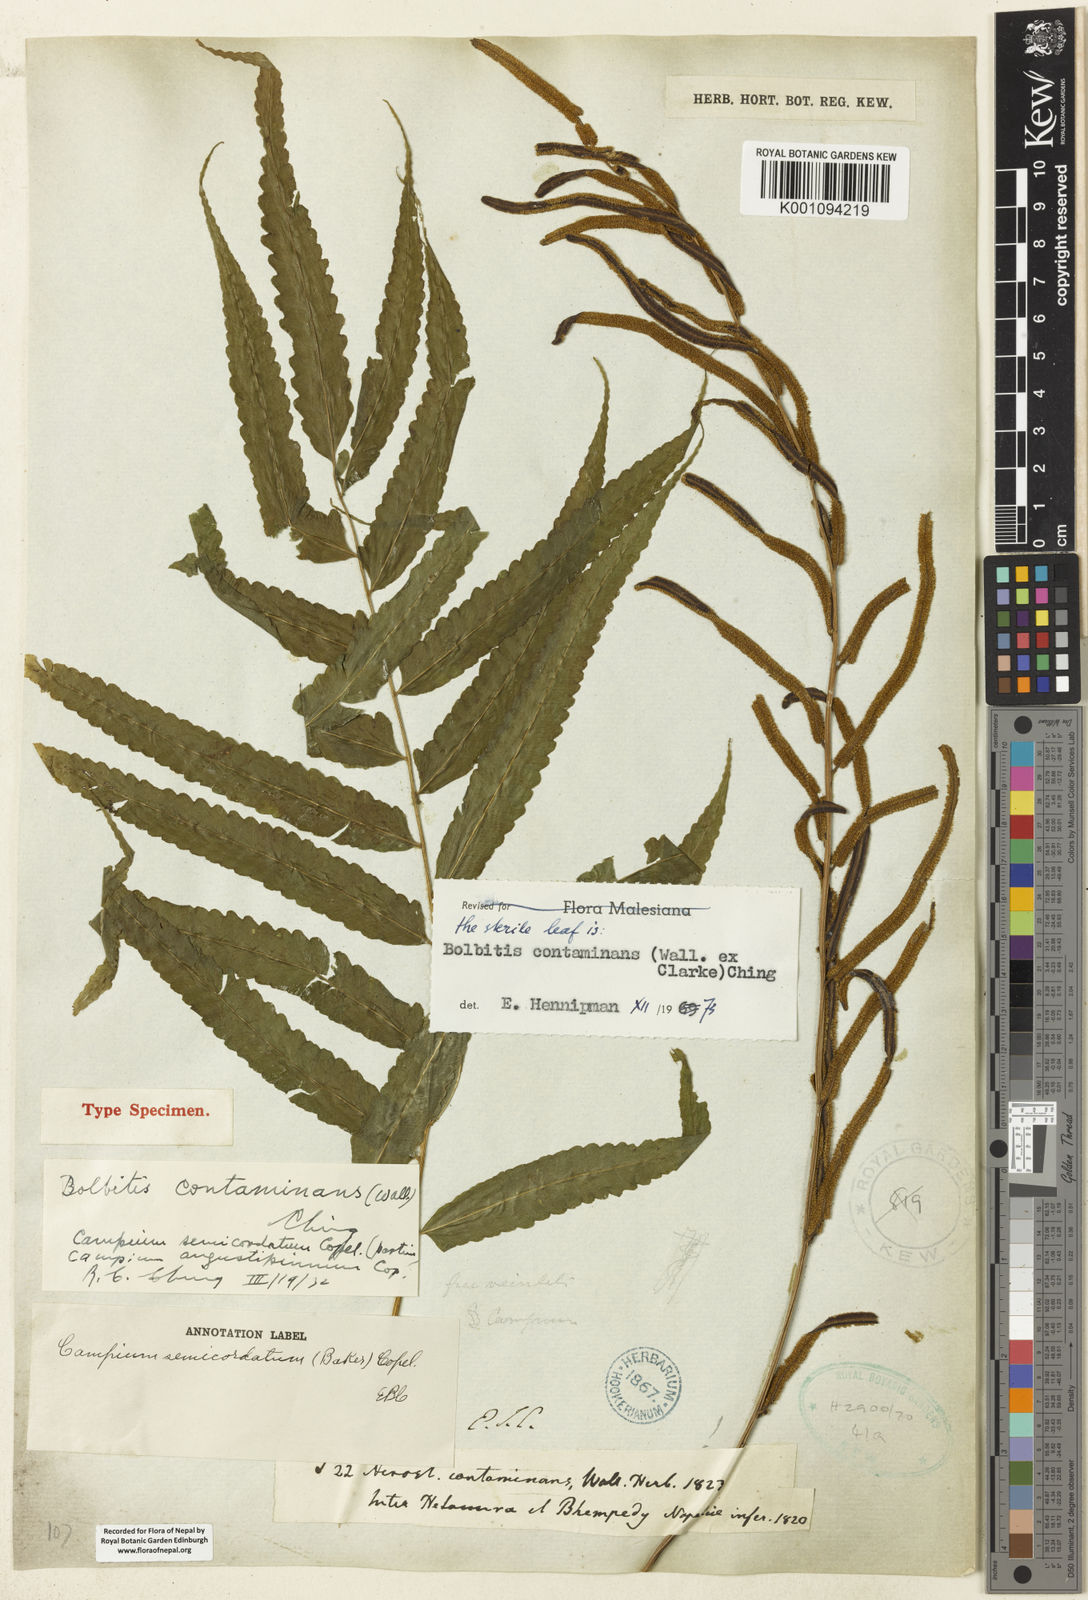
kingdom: Plantae
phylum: Tracheophyta
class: Polypodiopsida
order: Polypodiales
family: Dryopteridaceae
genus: Bolbitis
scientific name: Bolbitis semicordata
